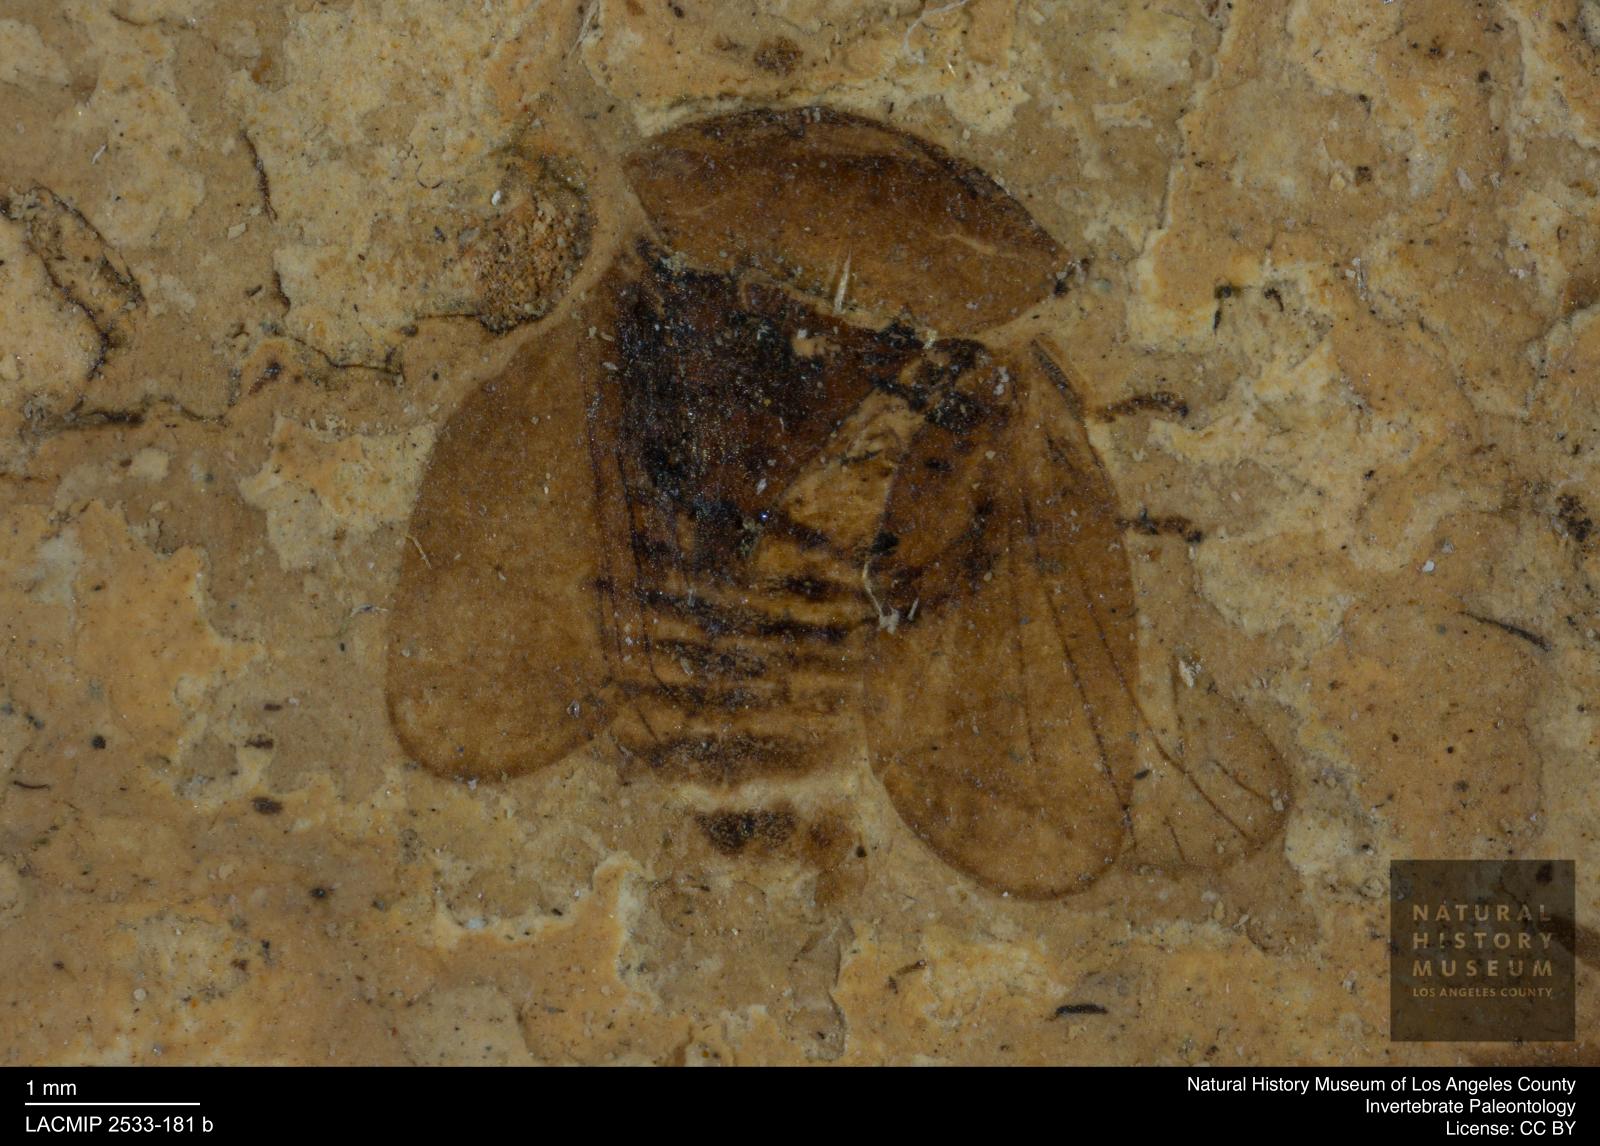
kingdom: Animalia
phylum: Arthropoda
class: Insecta
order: Hemiptera
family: Cicadellidae
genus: Oligopenthimia
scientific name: Oligopenthimia ovalis
